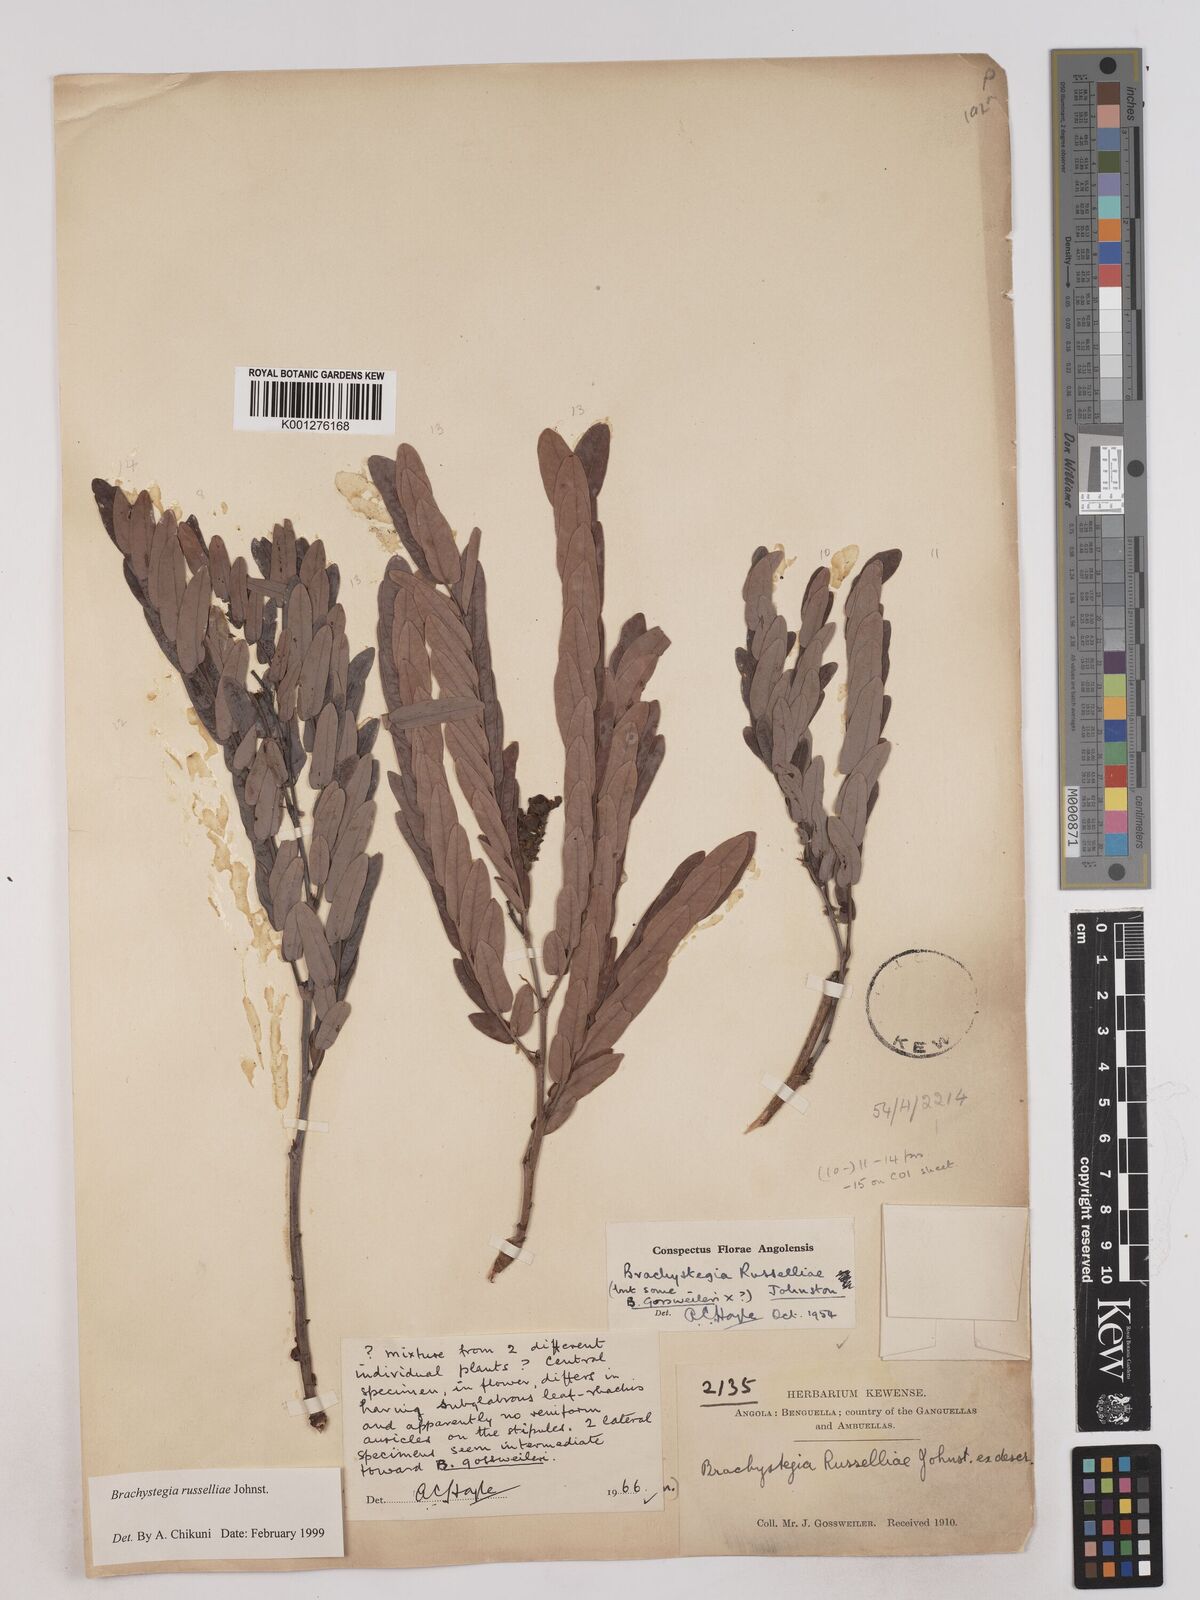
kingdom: Plantae
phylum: Tracheophyta
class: Magnoliopsida
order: Fabales
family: Fabaceae
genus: Brachystegia
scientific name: Brachystegia russelliae
